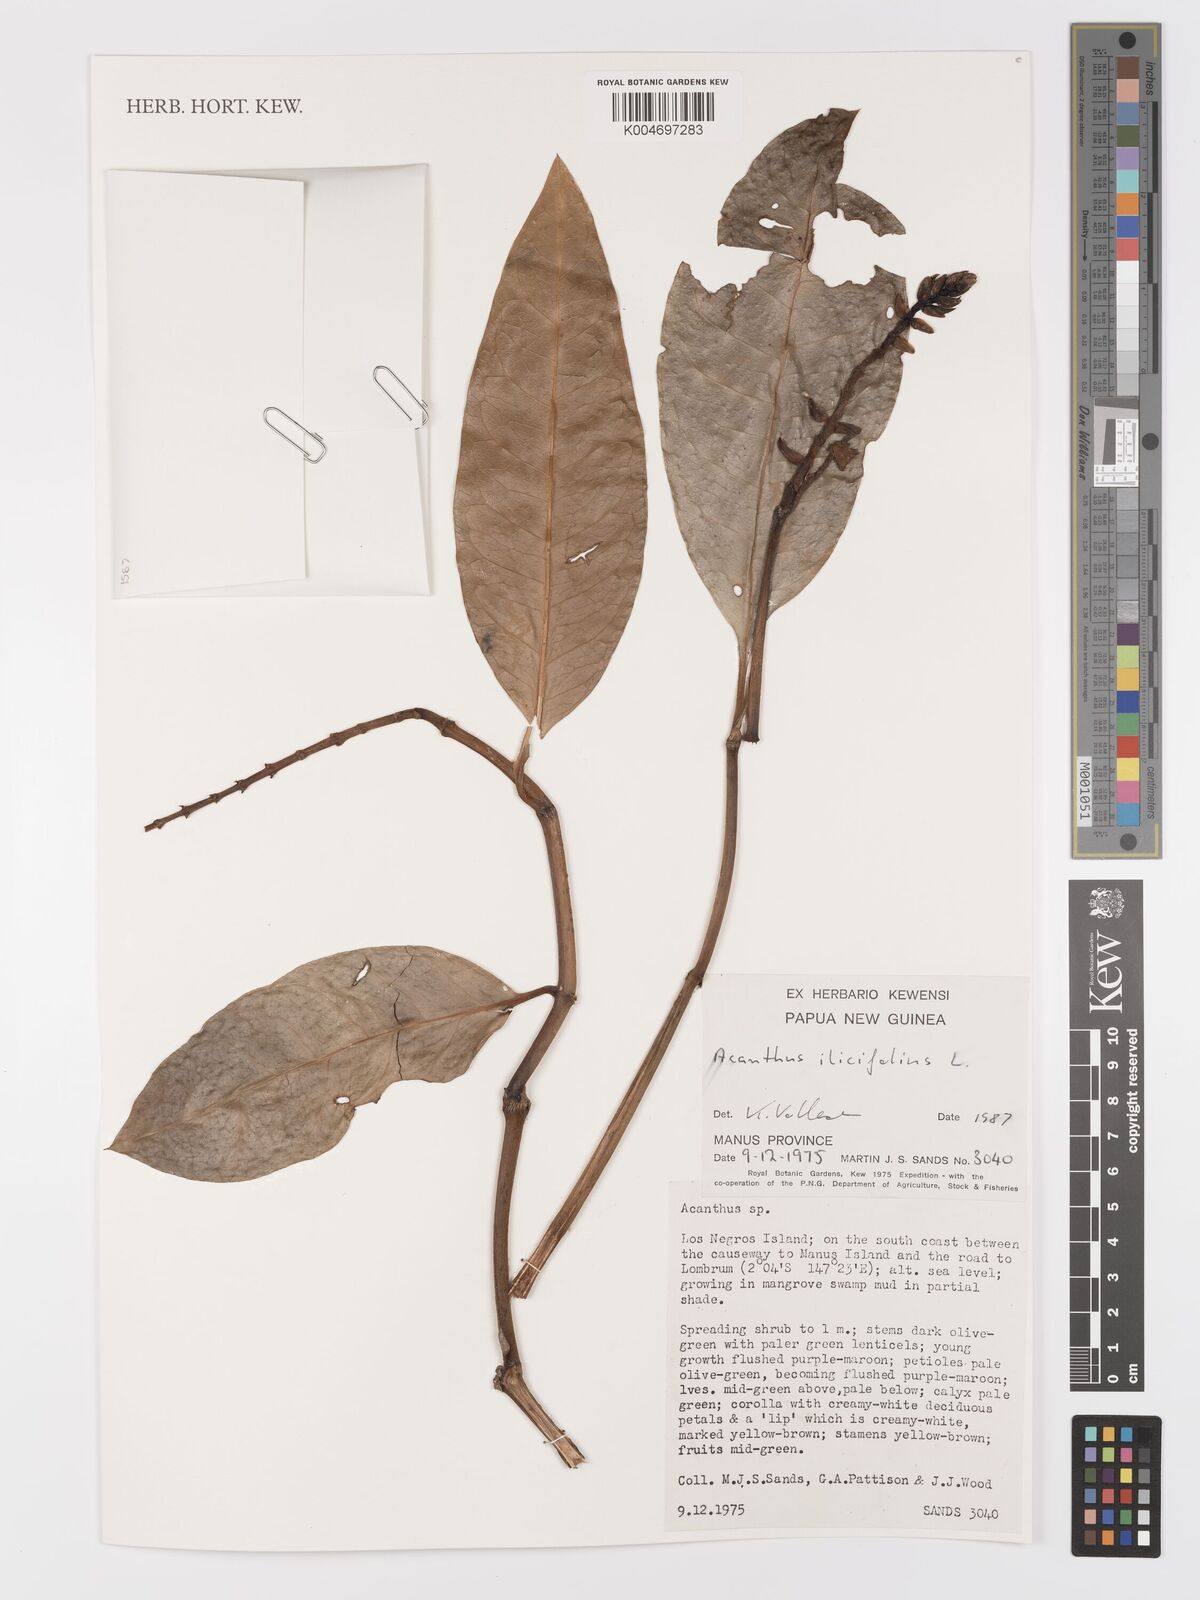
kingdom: Plantae
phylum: Tracheophyta
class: Magnoliopsida
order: Lamiales
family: Acanthaceae
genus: Acanthus
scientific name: Acanthus ilicifolius
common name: Holy mangrove
